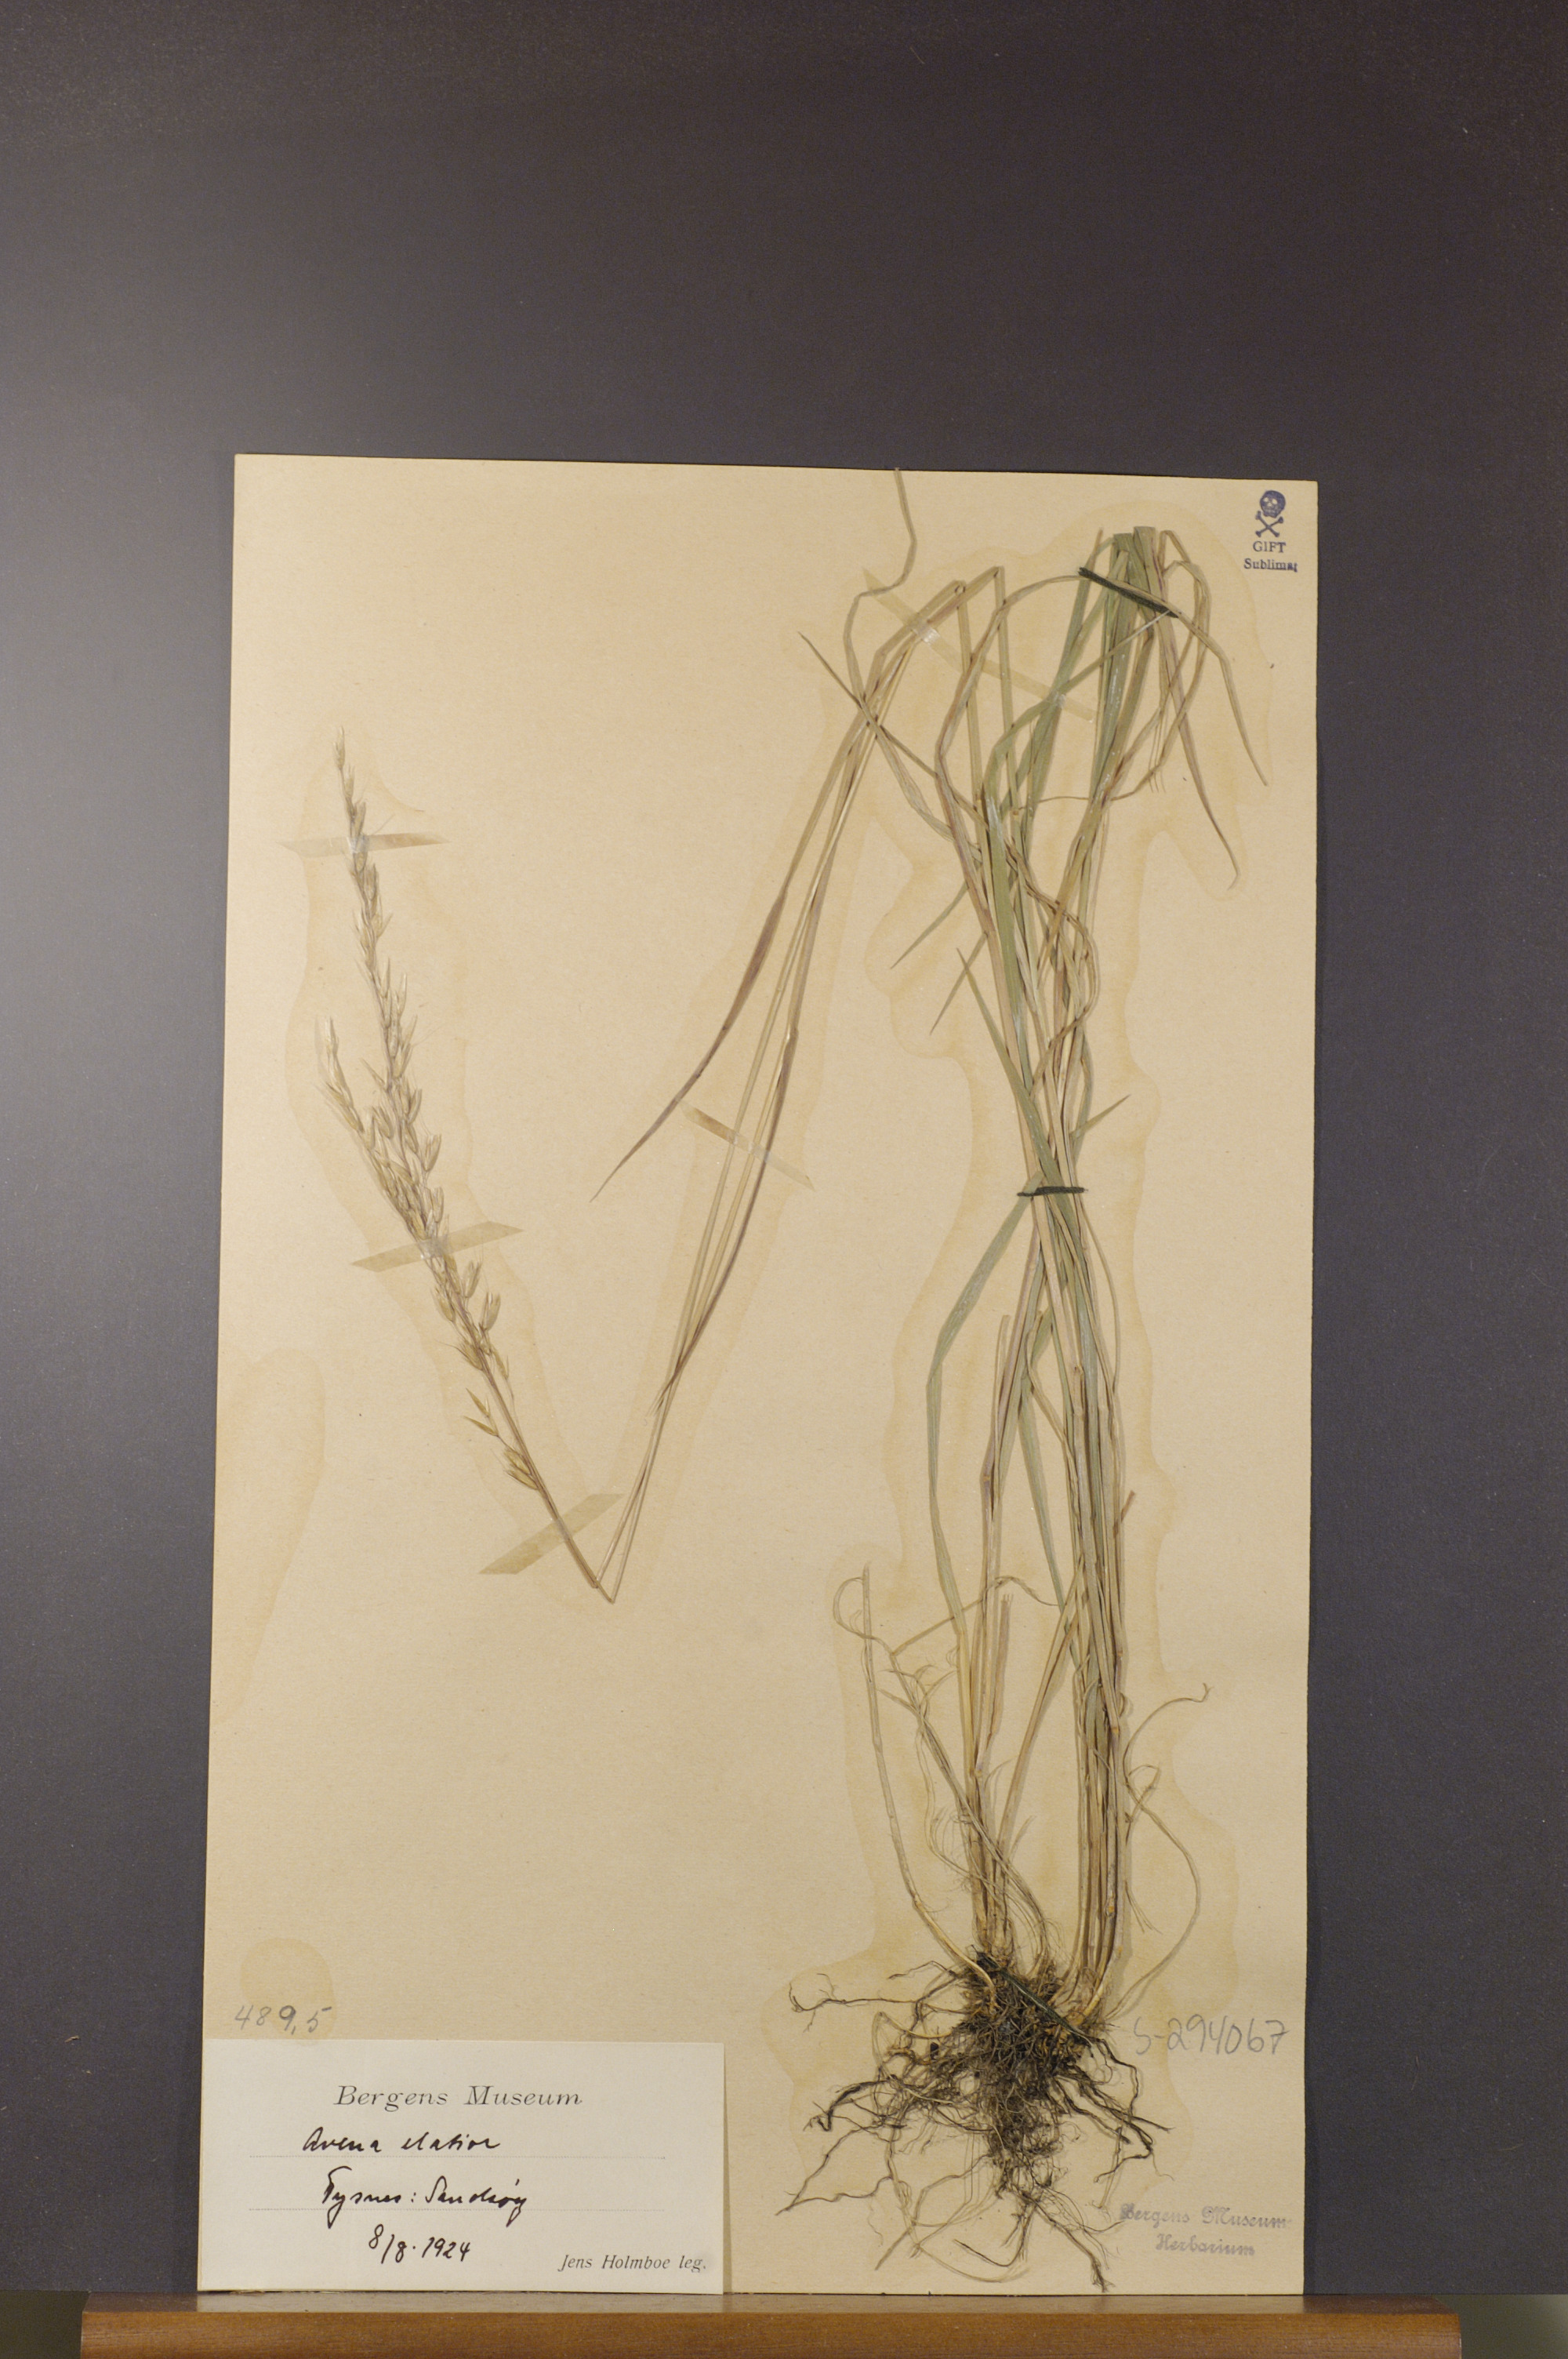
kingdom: Plantae
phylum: Tracheophyta
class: Liliopsida
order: Poales
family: Poaceae
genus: Arrhenatherum
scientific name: Arrhenatherum elatius
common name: Tall oatgrass
